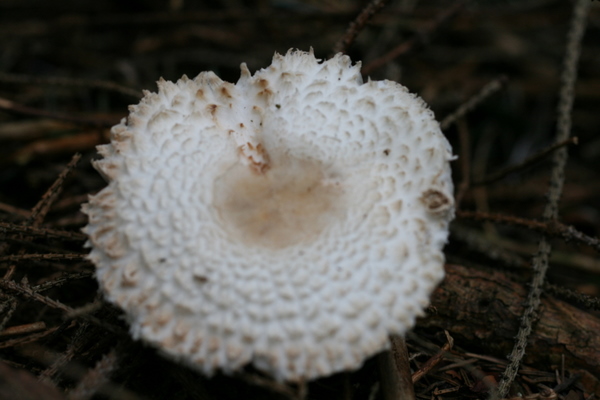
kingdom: Fungi
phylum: Basidiomycota
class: Agaricomycetes
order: Agaricales
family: Agaricaceae
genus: Leucoagaricus
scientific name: Leucoagaricus nympharum
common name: gran-silkehat
